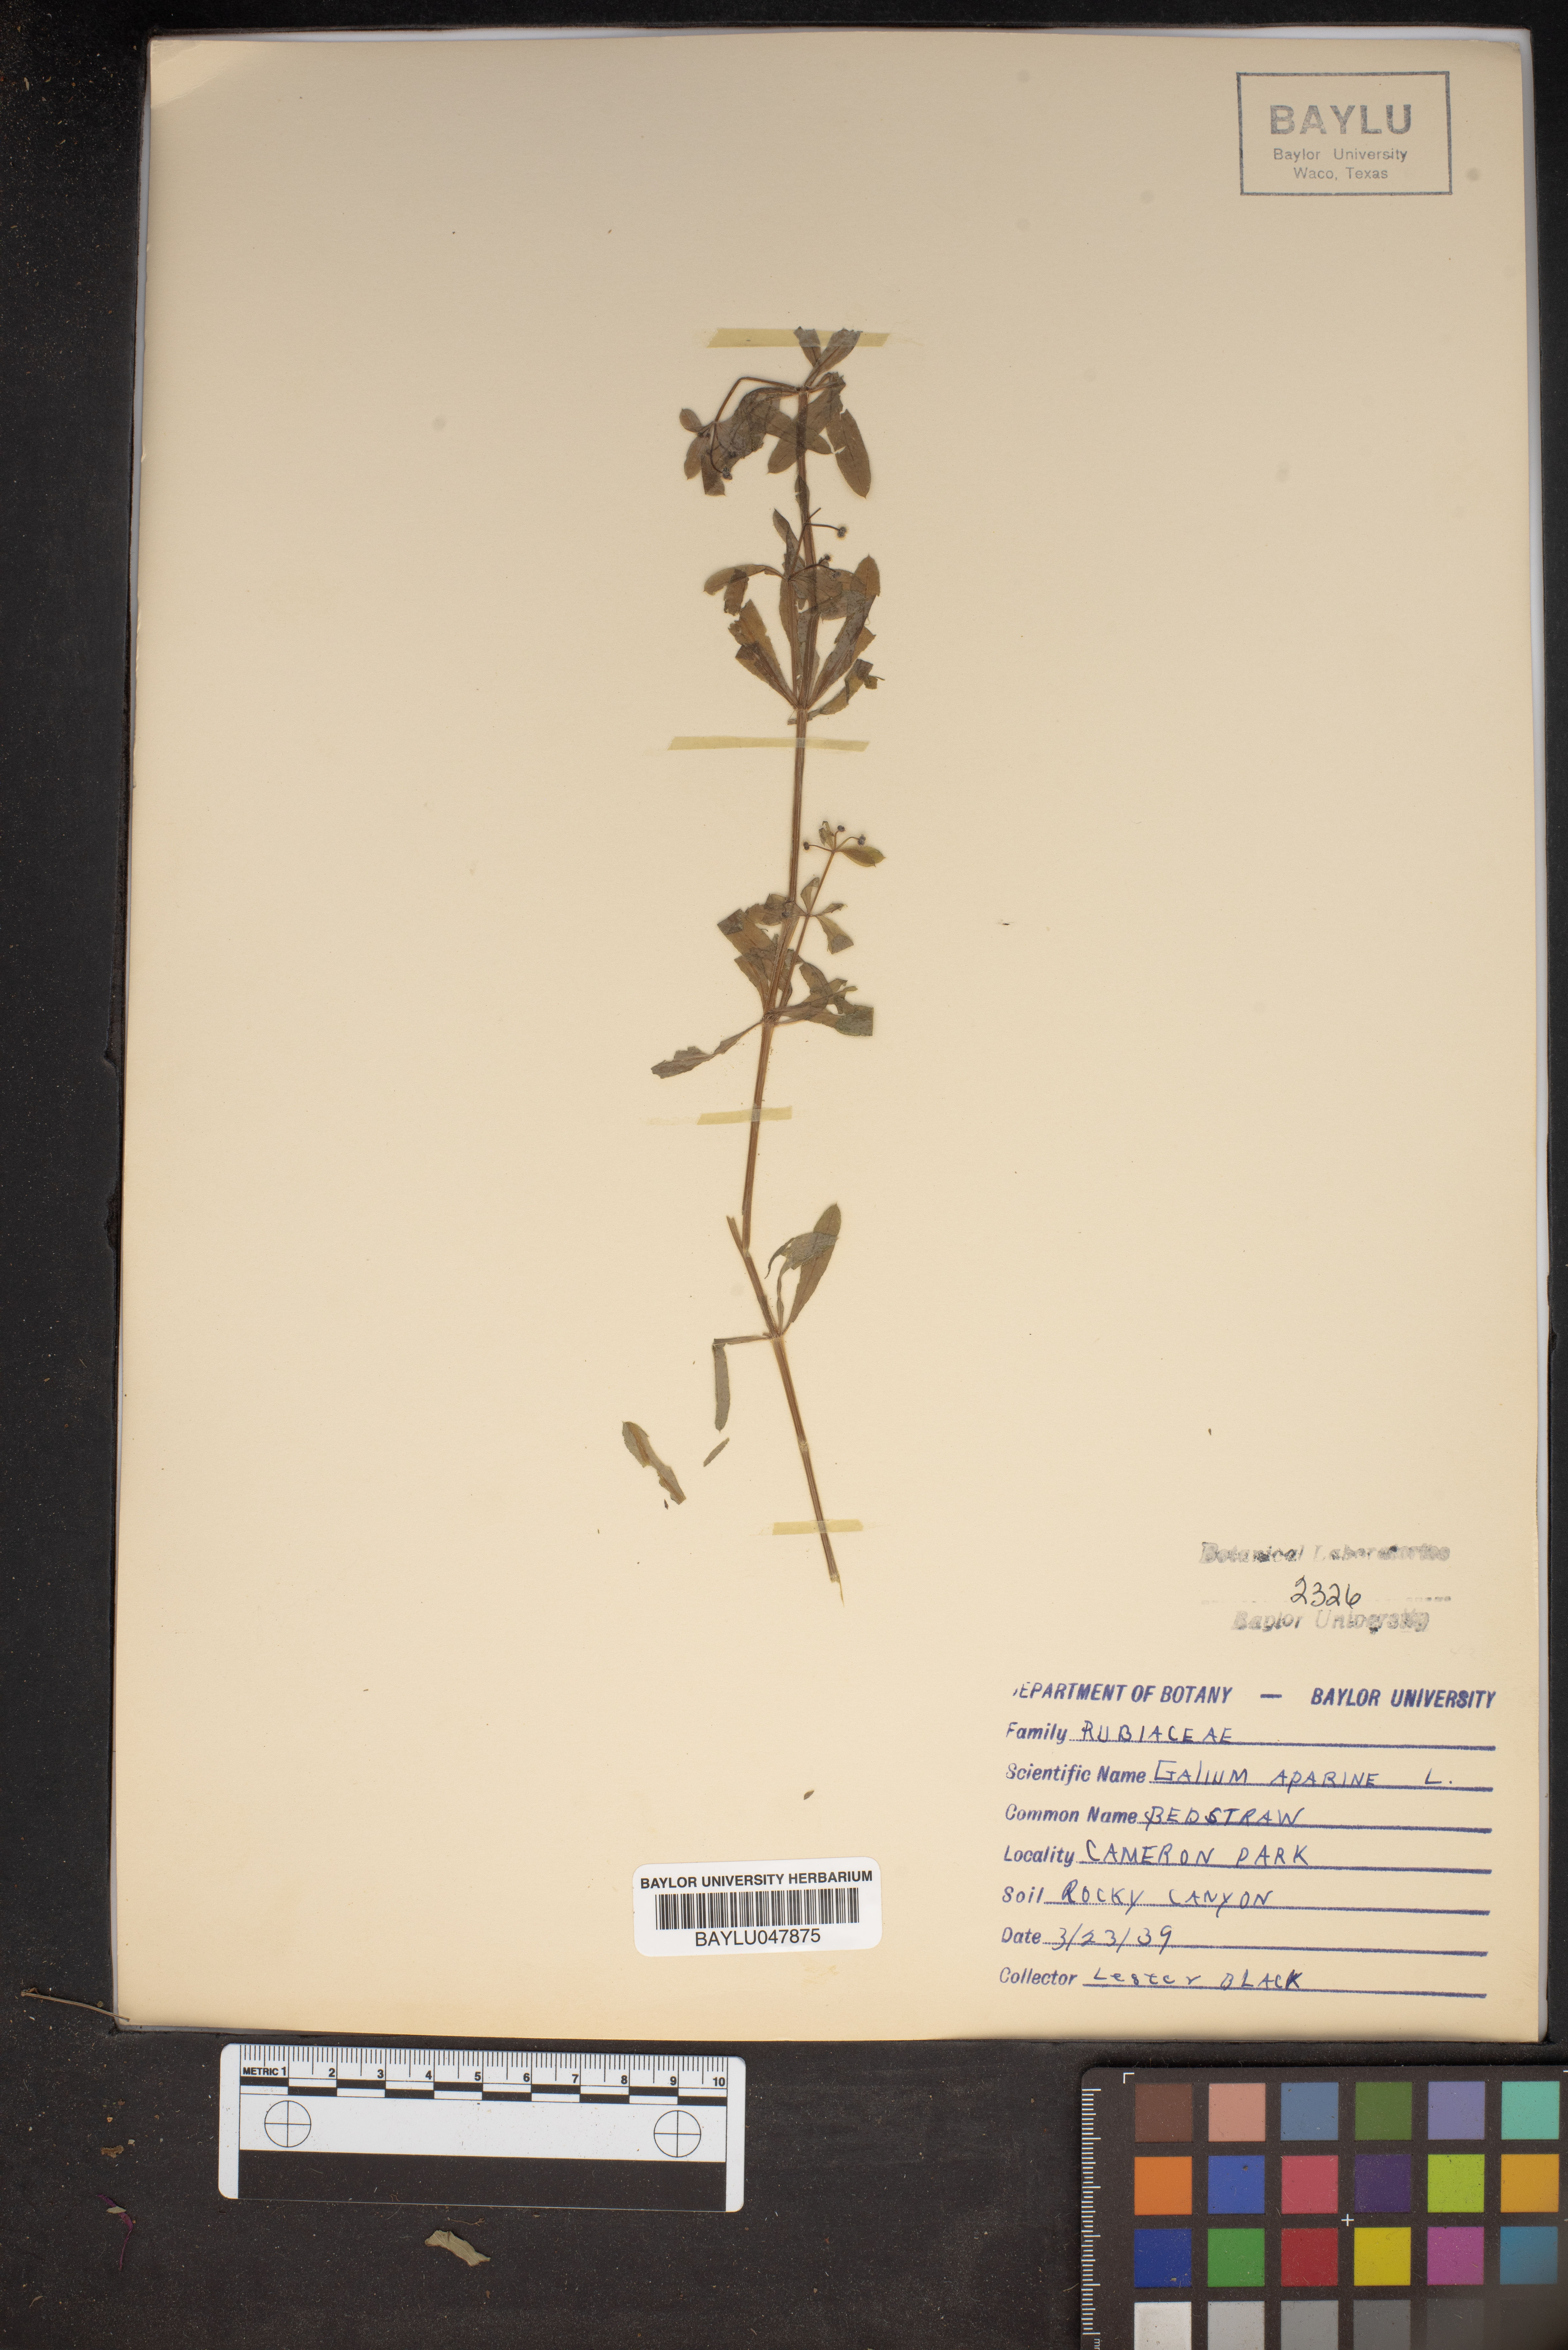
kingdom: Plantae
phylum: Tracheophyta
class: Magnoliopsida
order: Gentianales
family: Rubiaceae
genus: Galium
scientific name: Galium aparine
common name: Cleavers
